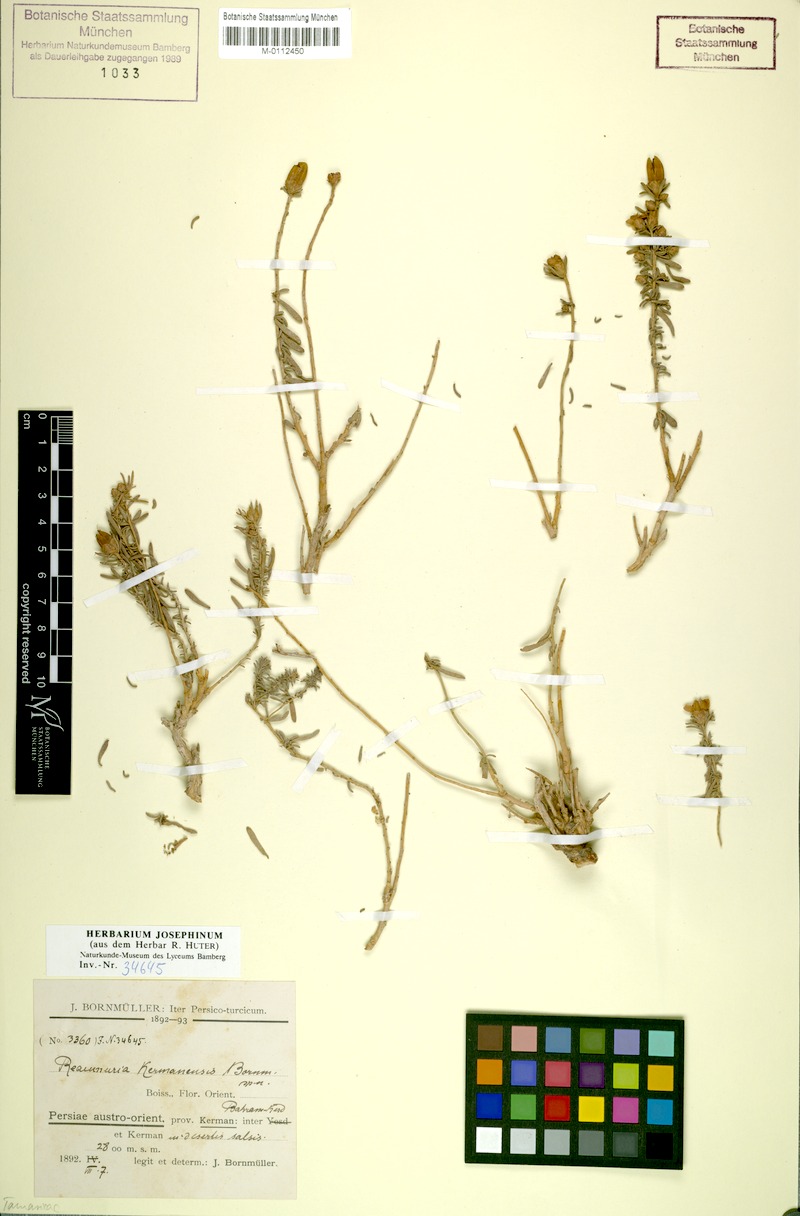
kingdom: Plantae
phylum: Tracheophyta
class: Magnoliopsida
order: Caryophyllales
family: Tamaricaceae
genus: Reaumuria
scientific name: Reaumuria kermanensis
